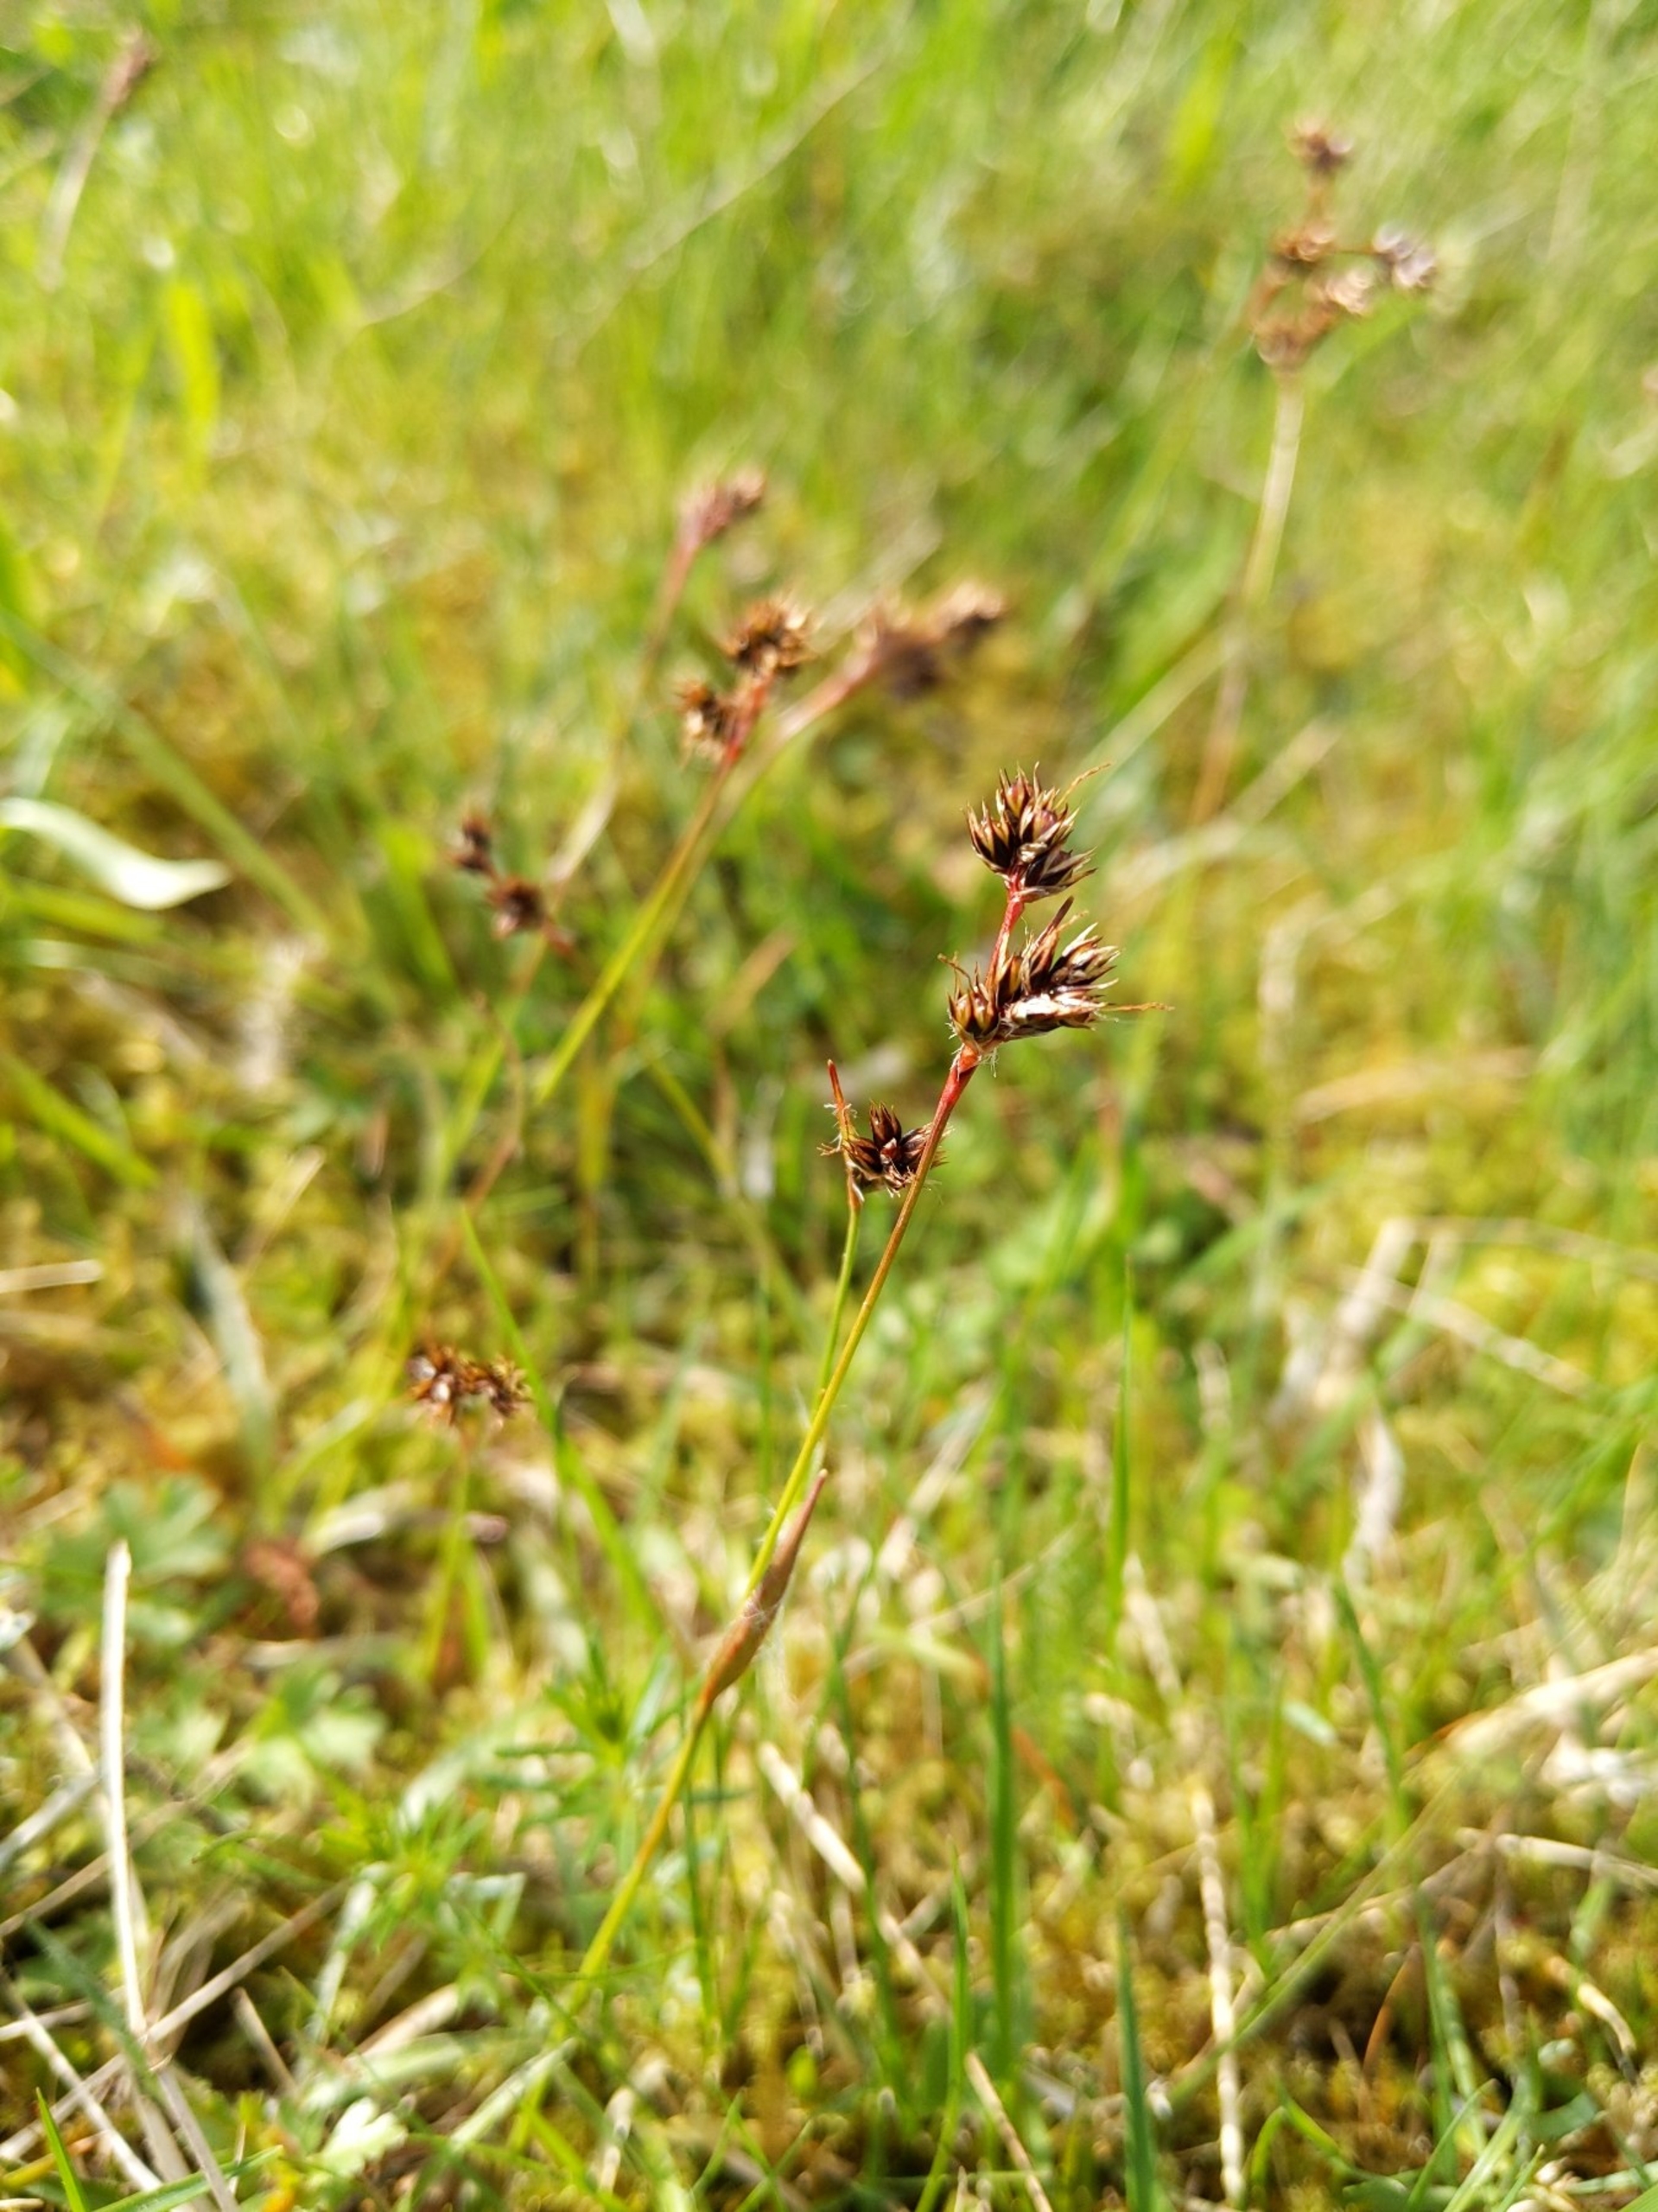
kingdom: Plantae
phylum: Tracheophyta
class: Liliopsida
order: Poales
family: Juncaceae
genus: Luzula
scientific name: Luzula campestris
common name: Mark-frytle
